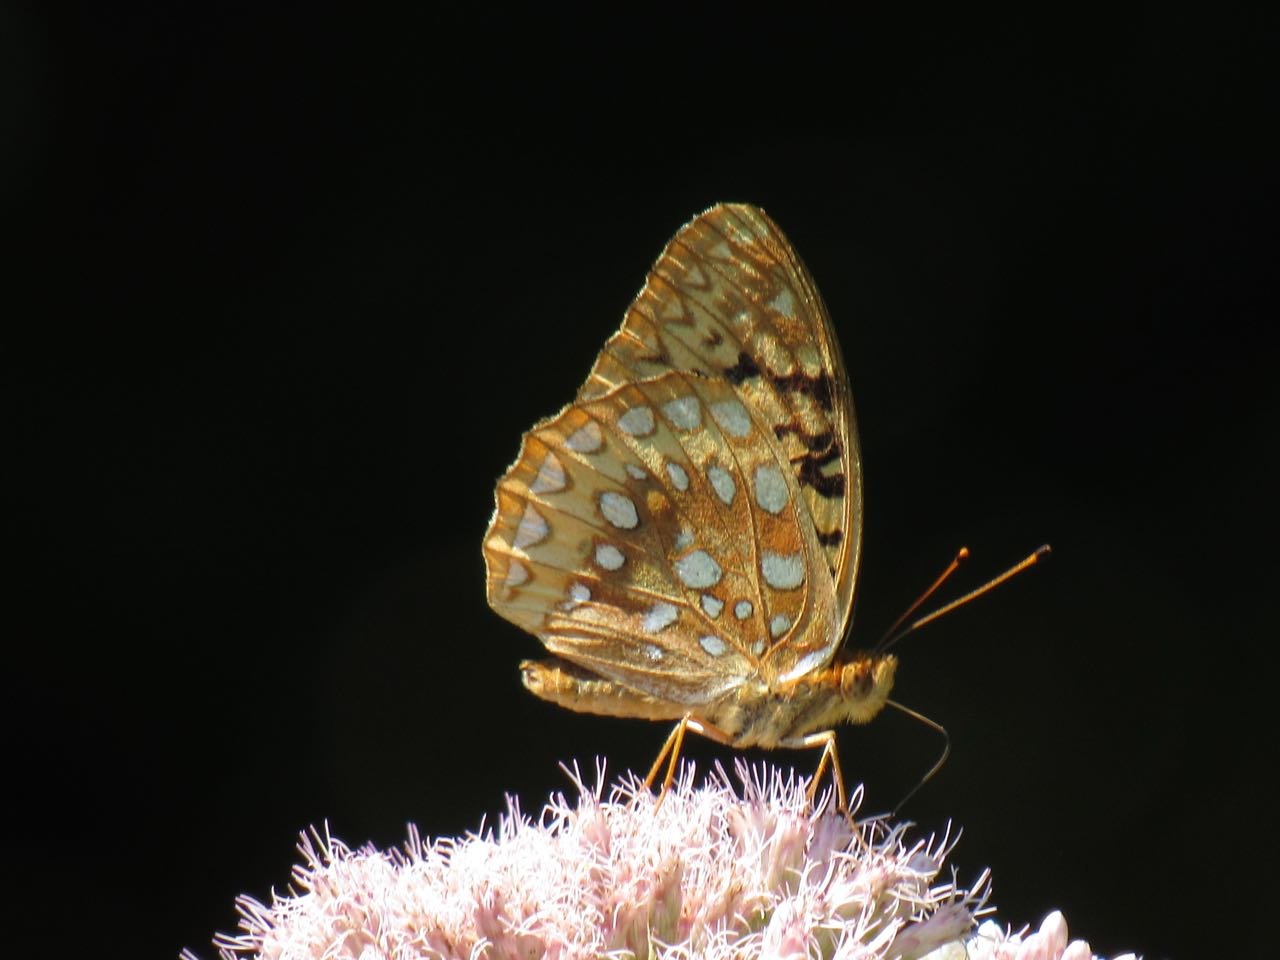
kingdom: Animalia
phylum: Arthropoda
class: Insecta
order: Lepidoptera
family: Nymphalidae
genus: Speyeria
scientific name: Speyeria cybele
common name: Great Spangled Fritillary
